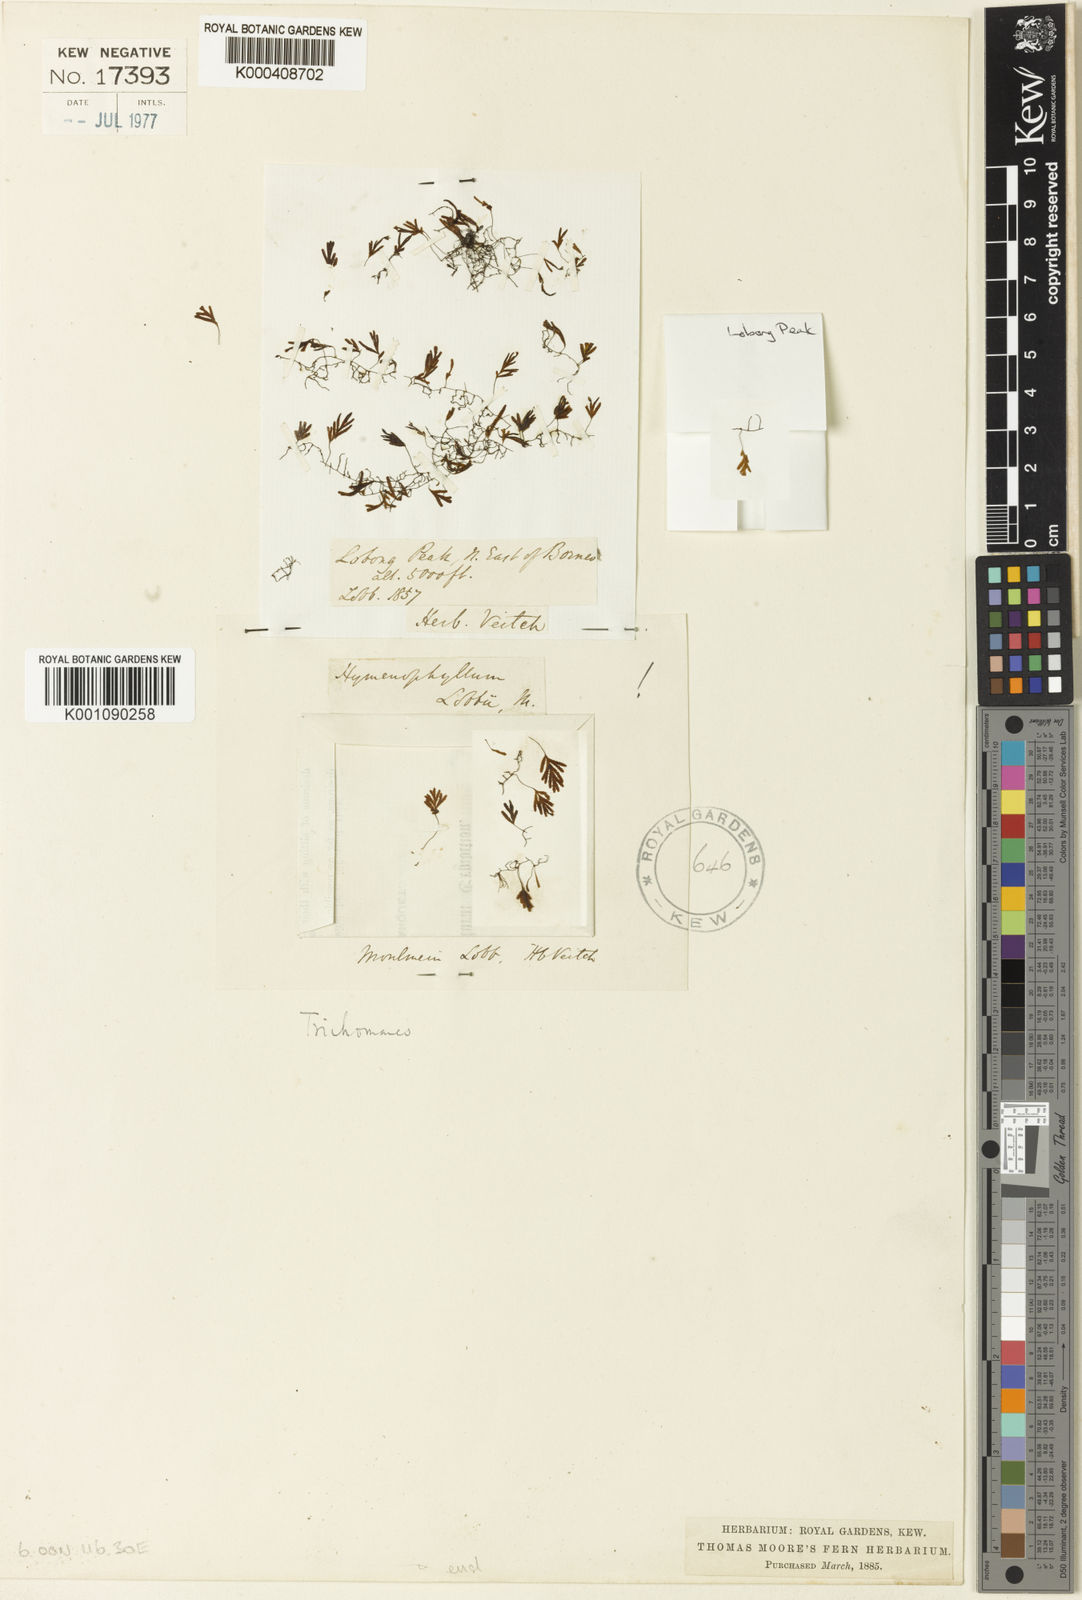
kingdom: Plantae
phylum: Tracheophyta
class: Polypodiopsida
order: Hymenophyllales
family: Hymenophyllaceae
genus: Hymenophyllum
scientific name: Hymenophyllum
